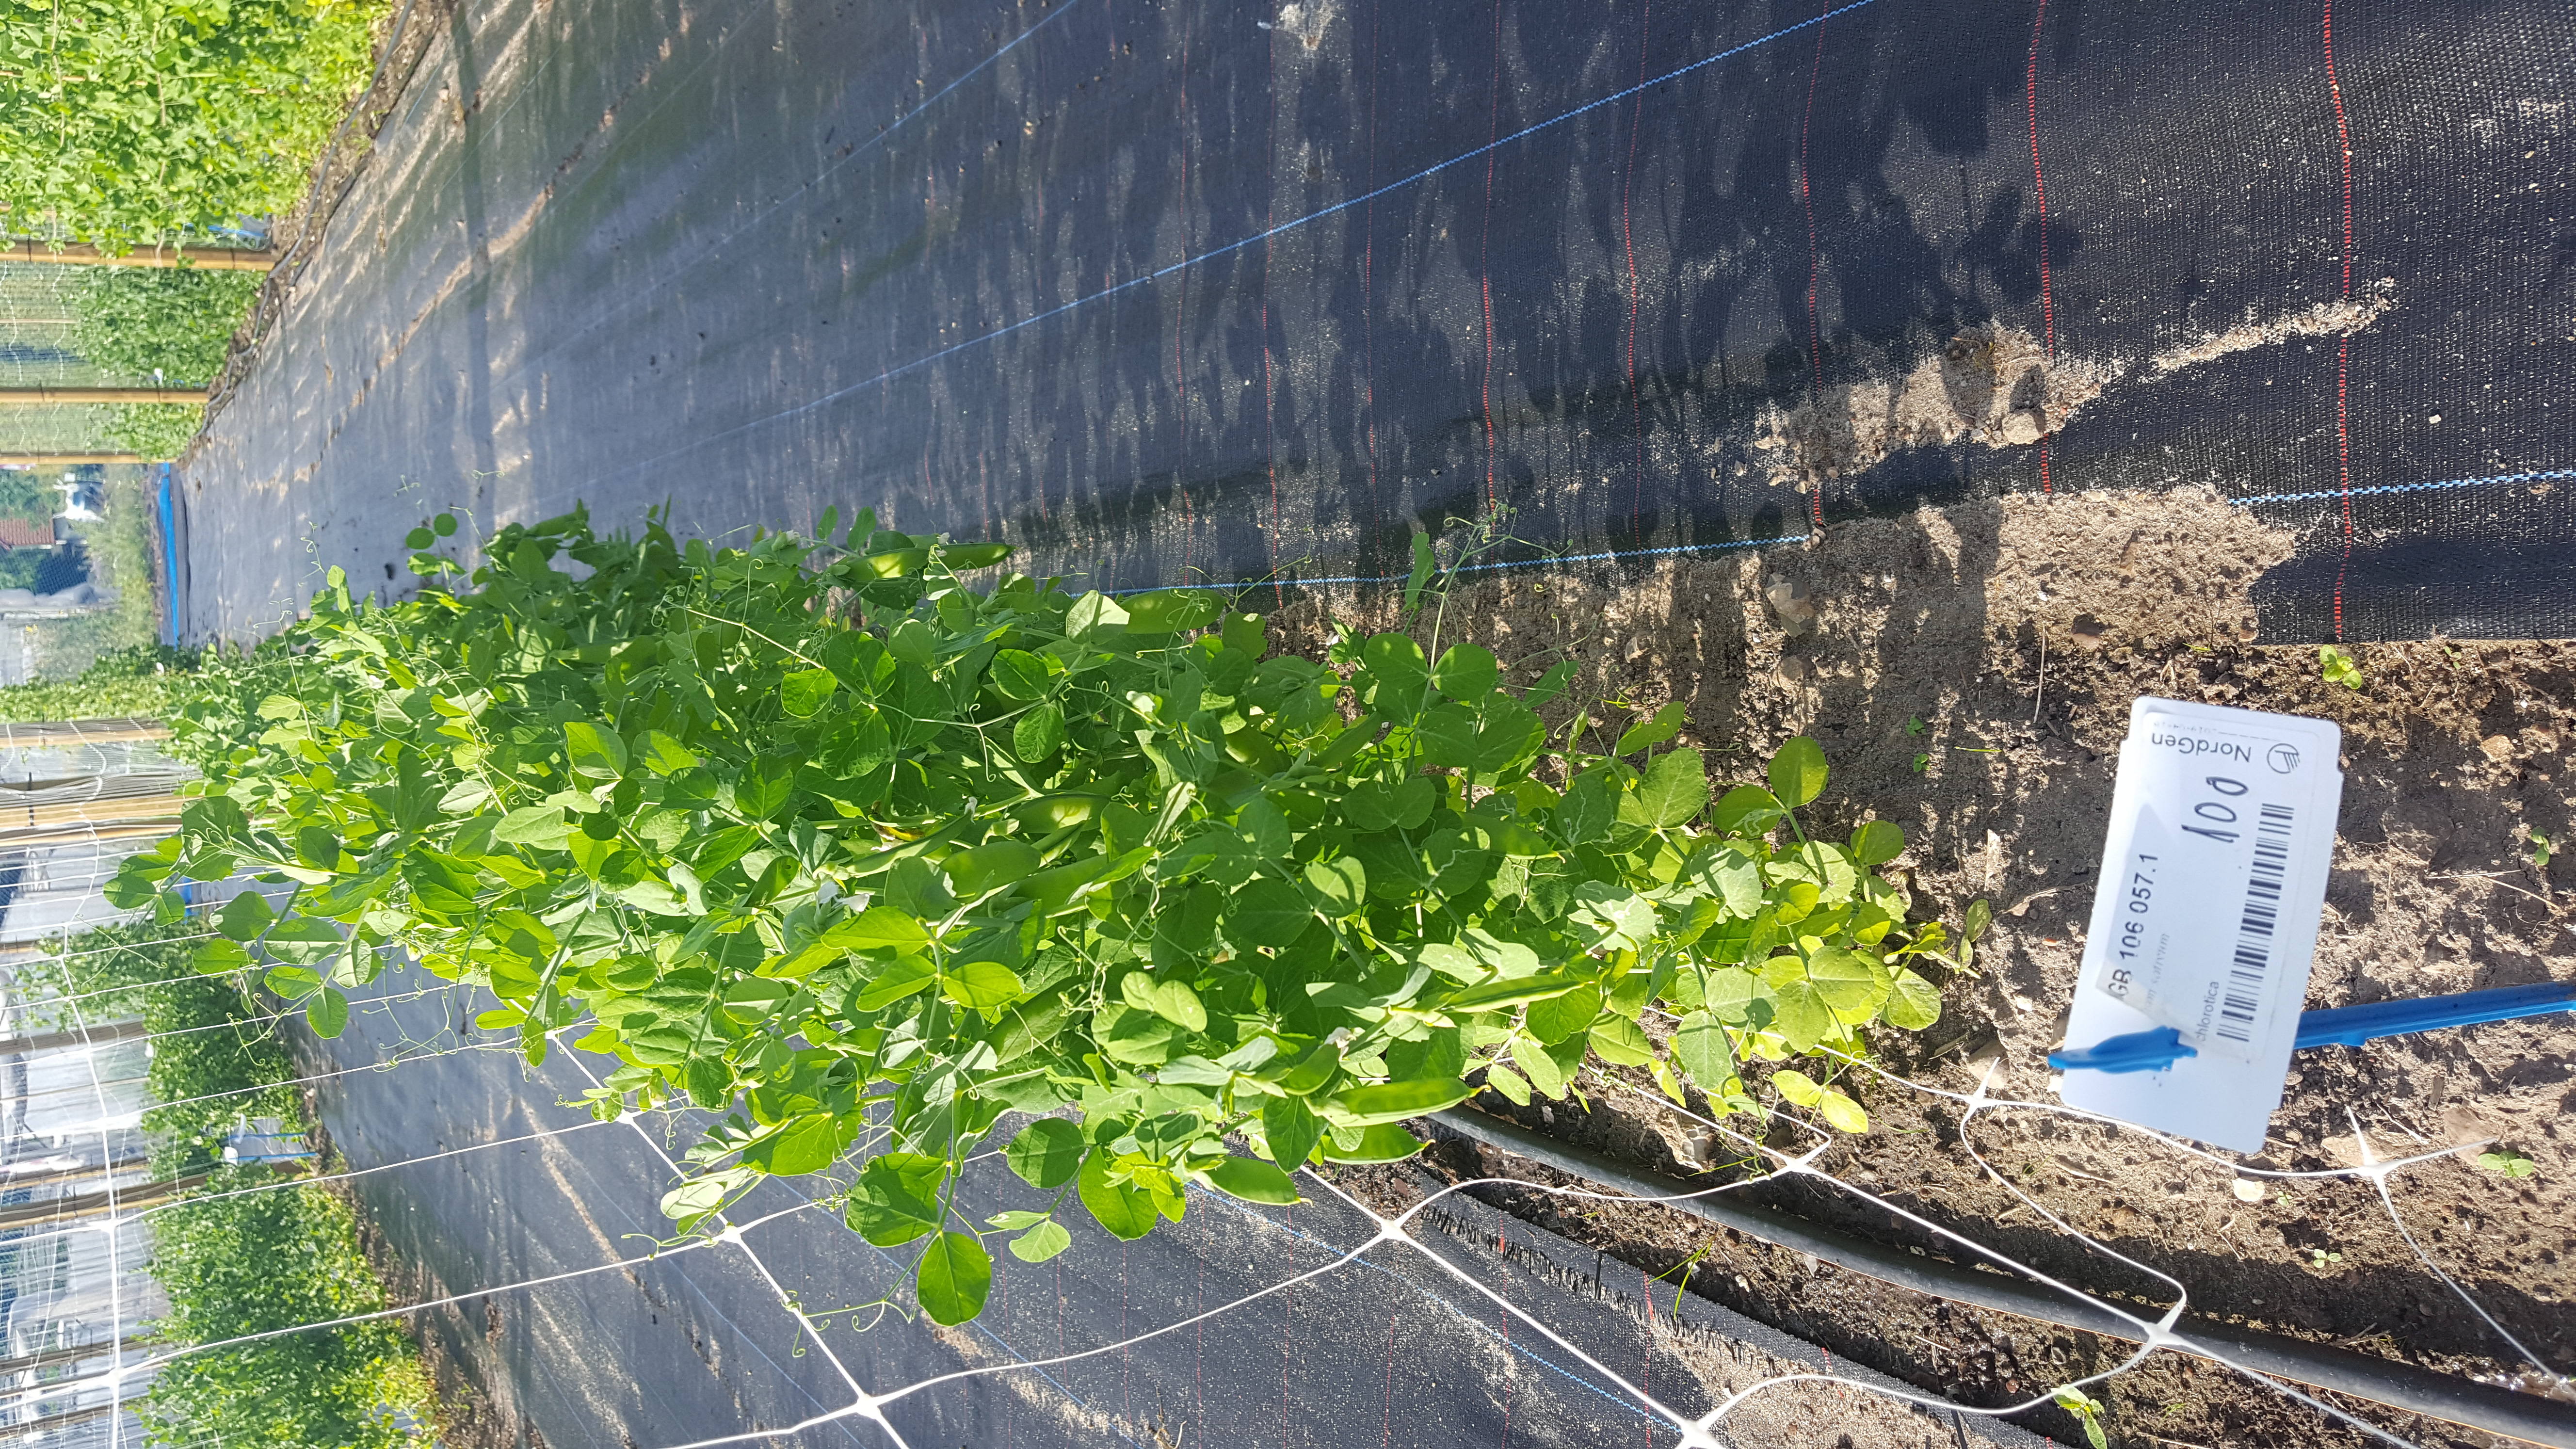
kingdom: Plantae
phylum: Tracheophyta
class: Magnoliopsida
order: Fabales
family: Fabaceae
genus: Lathyrus
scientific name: Lathyrus oleraceus
